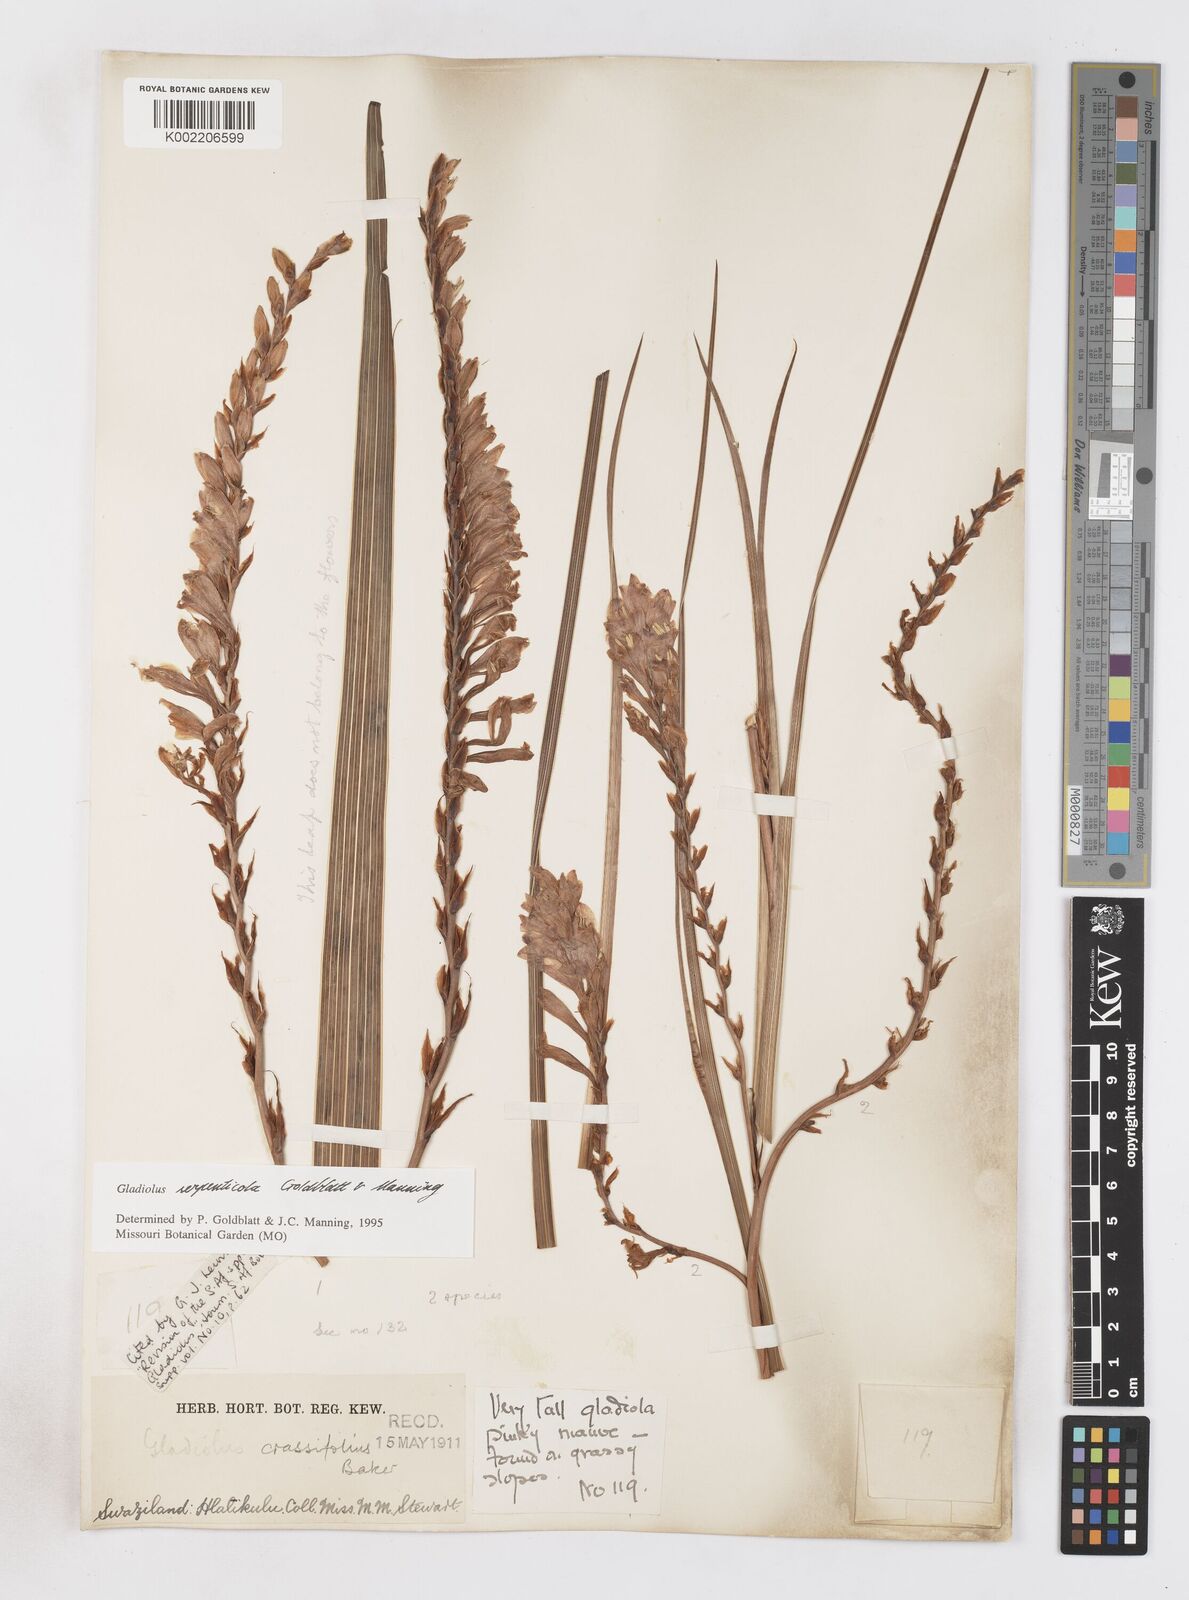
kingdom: Plantae
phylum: Tracheophyta
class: Liliopsida
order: Asparagales
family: Iridaceae
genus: Gladiolus
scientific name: Gladiolus serpenticola
